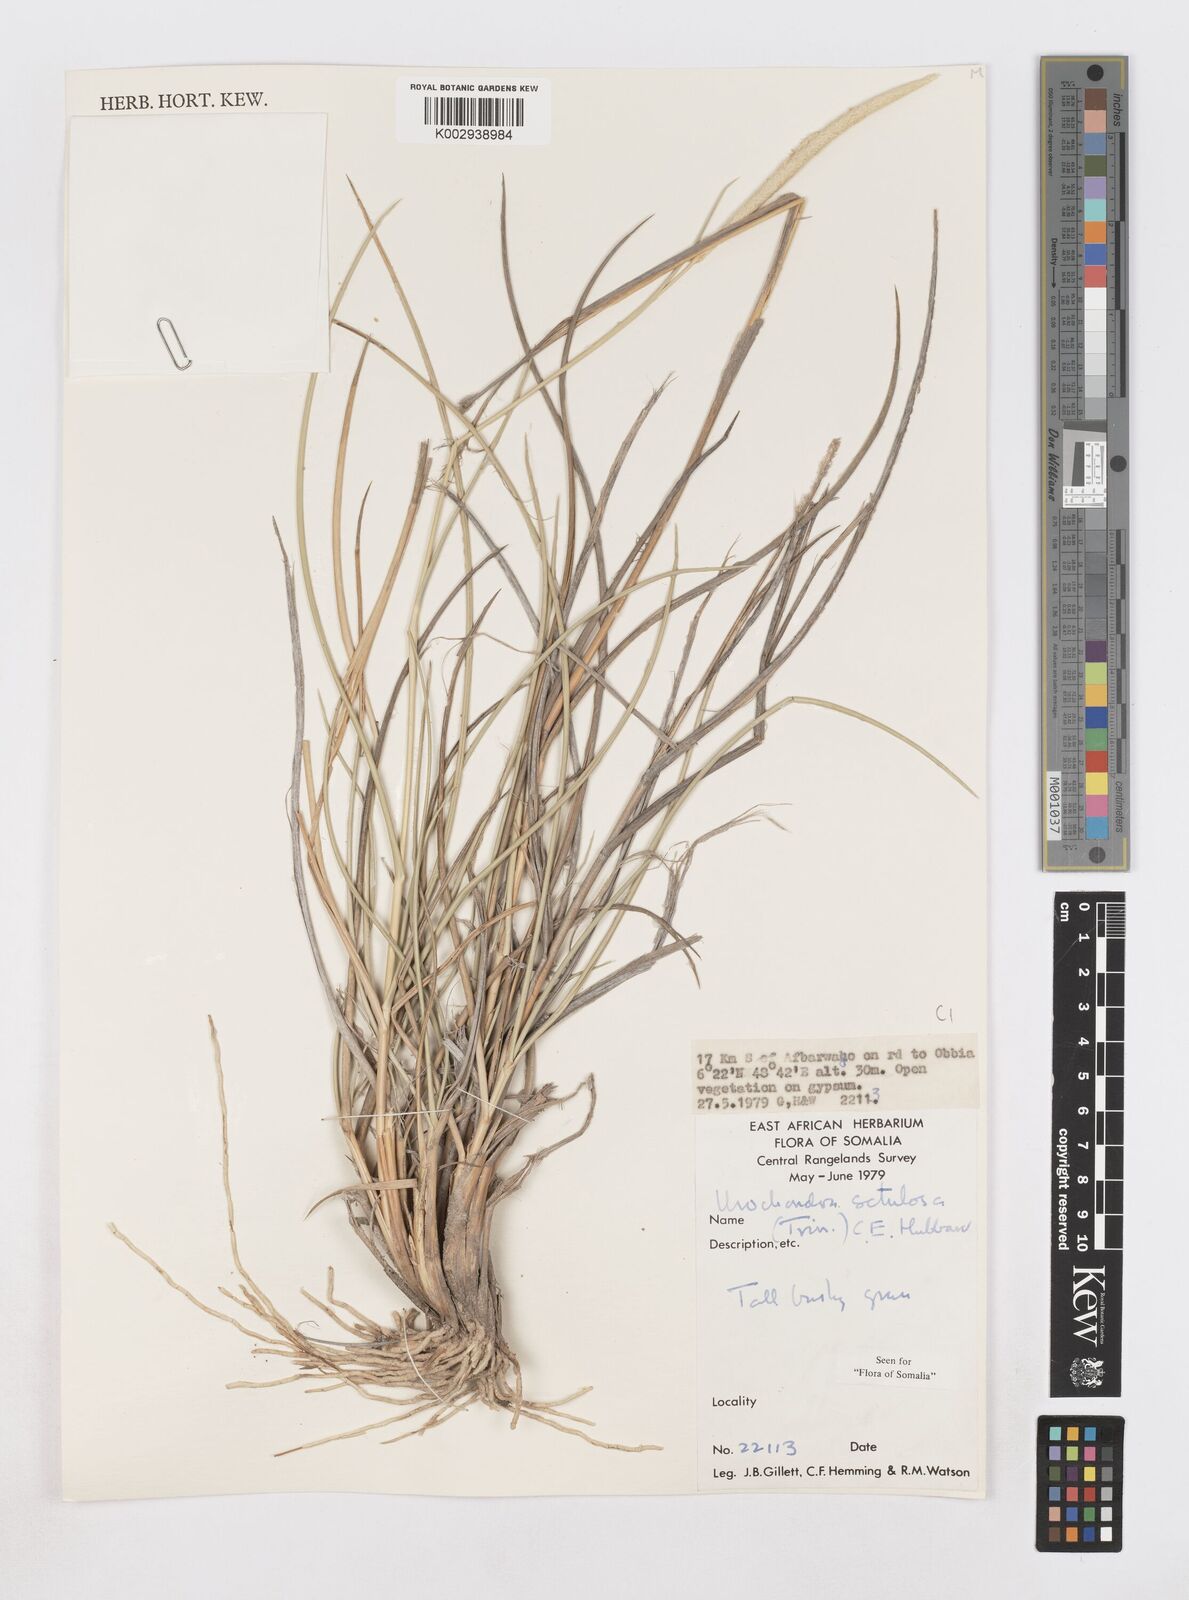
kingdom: Plantae
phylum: Tracheophyta
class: Liliopsida
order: Poales
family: Poaceae
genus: Urochondra
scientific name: Urochondra setulosa
